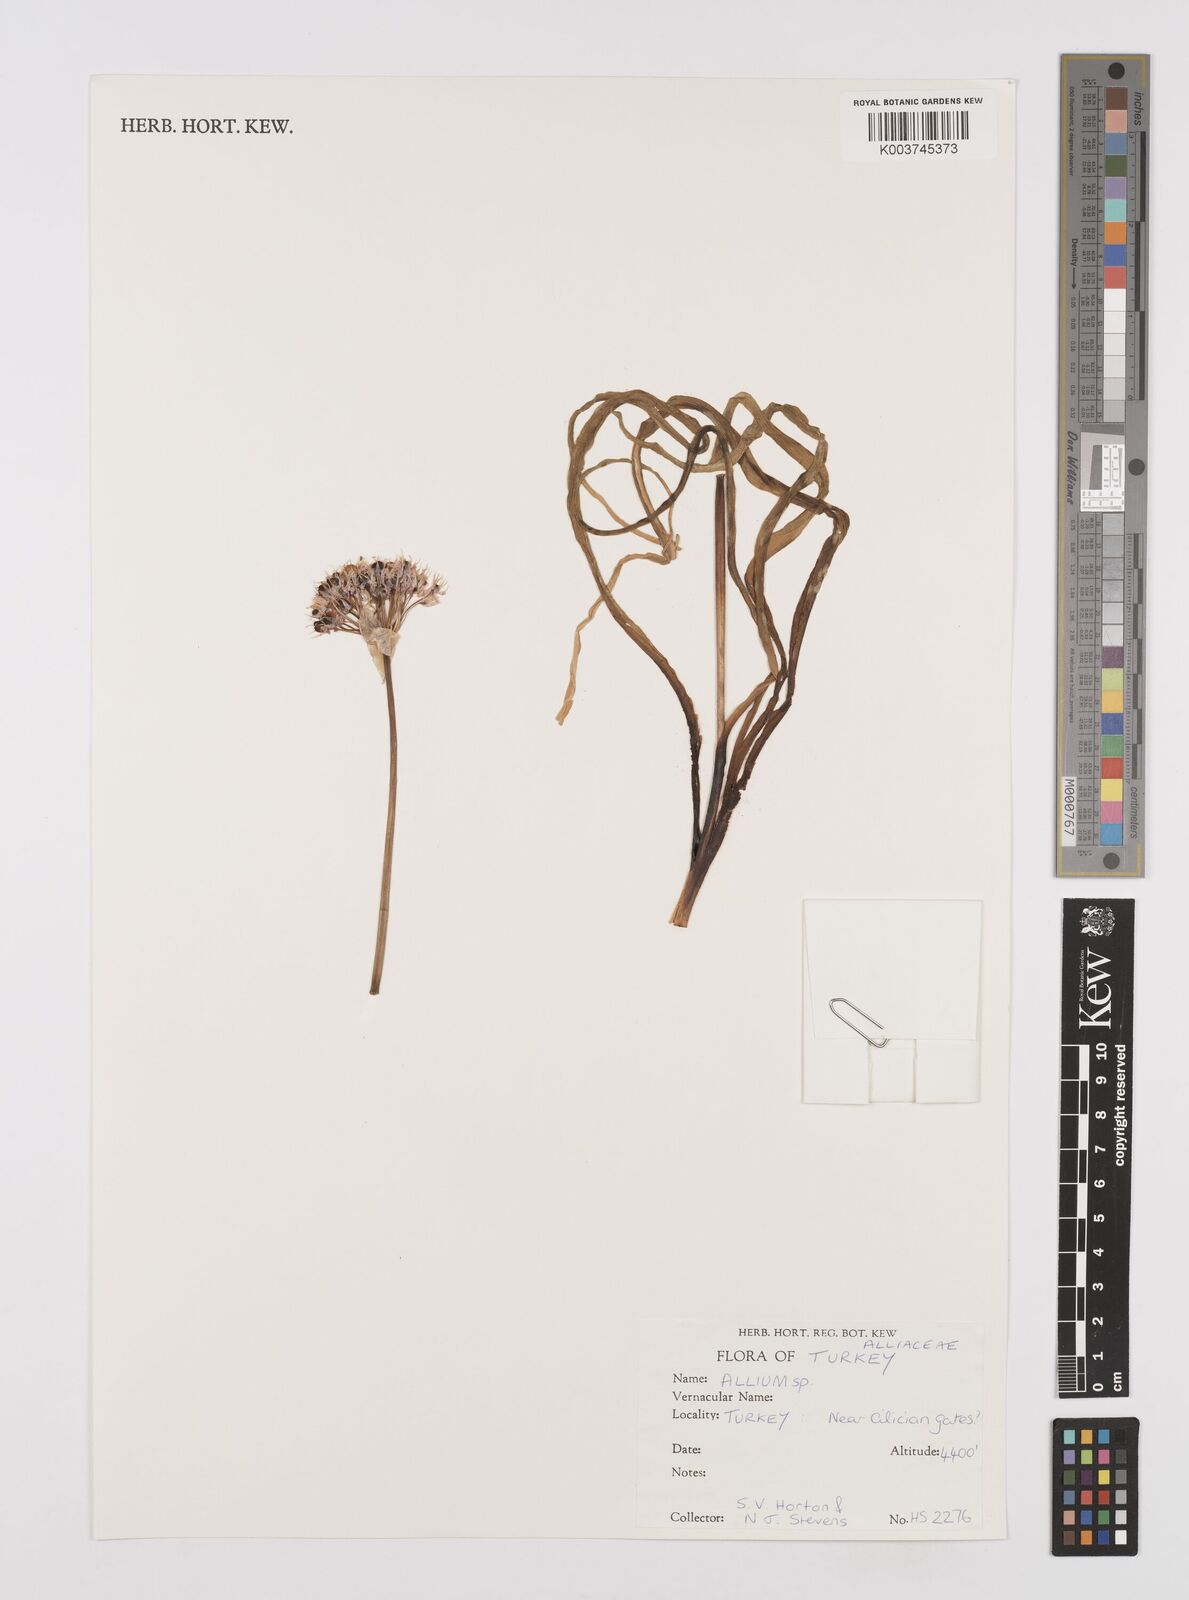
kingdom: Plantae
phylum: Tracheophyta
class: Liliopsida
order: Asparagales
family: Amaryllidaceae
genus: Allium
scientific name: Allium
